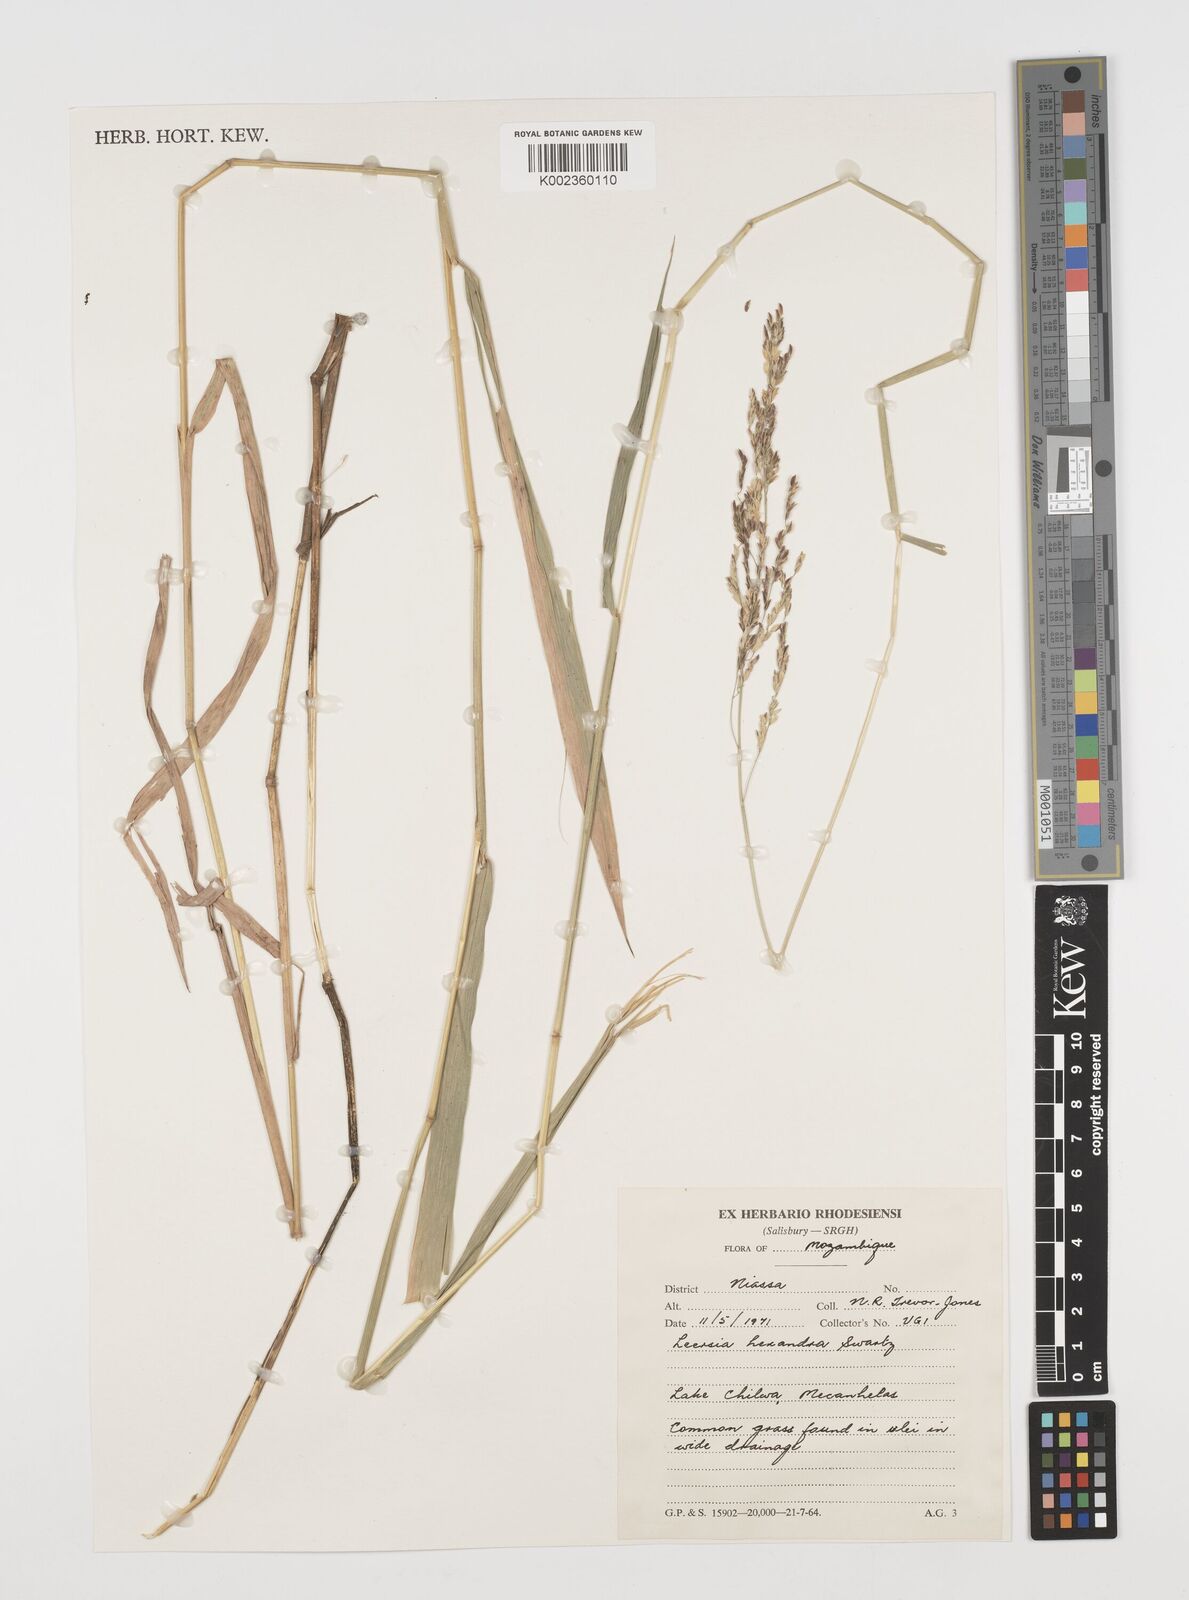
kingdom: Plantae
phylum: Tracheophyta
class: Liliopsida
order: Poales
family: Poaceae
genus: Leersia
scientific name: Leersia hexandra
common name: Southern cut grass
